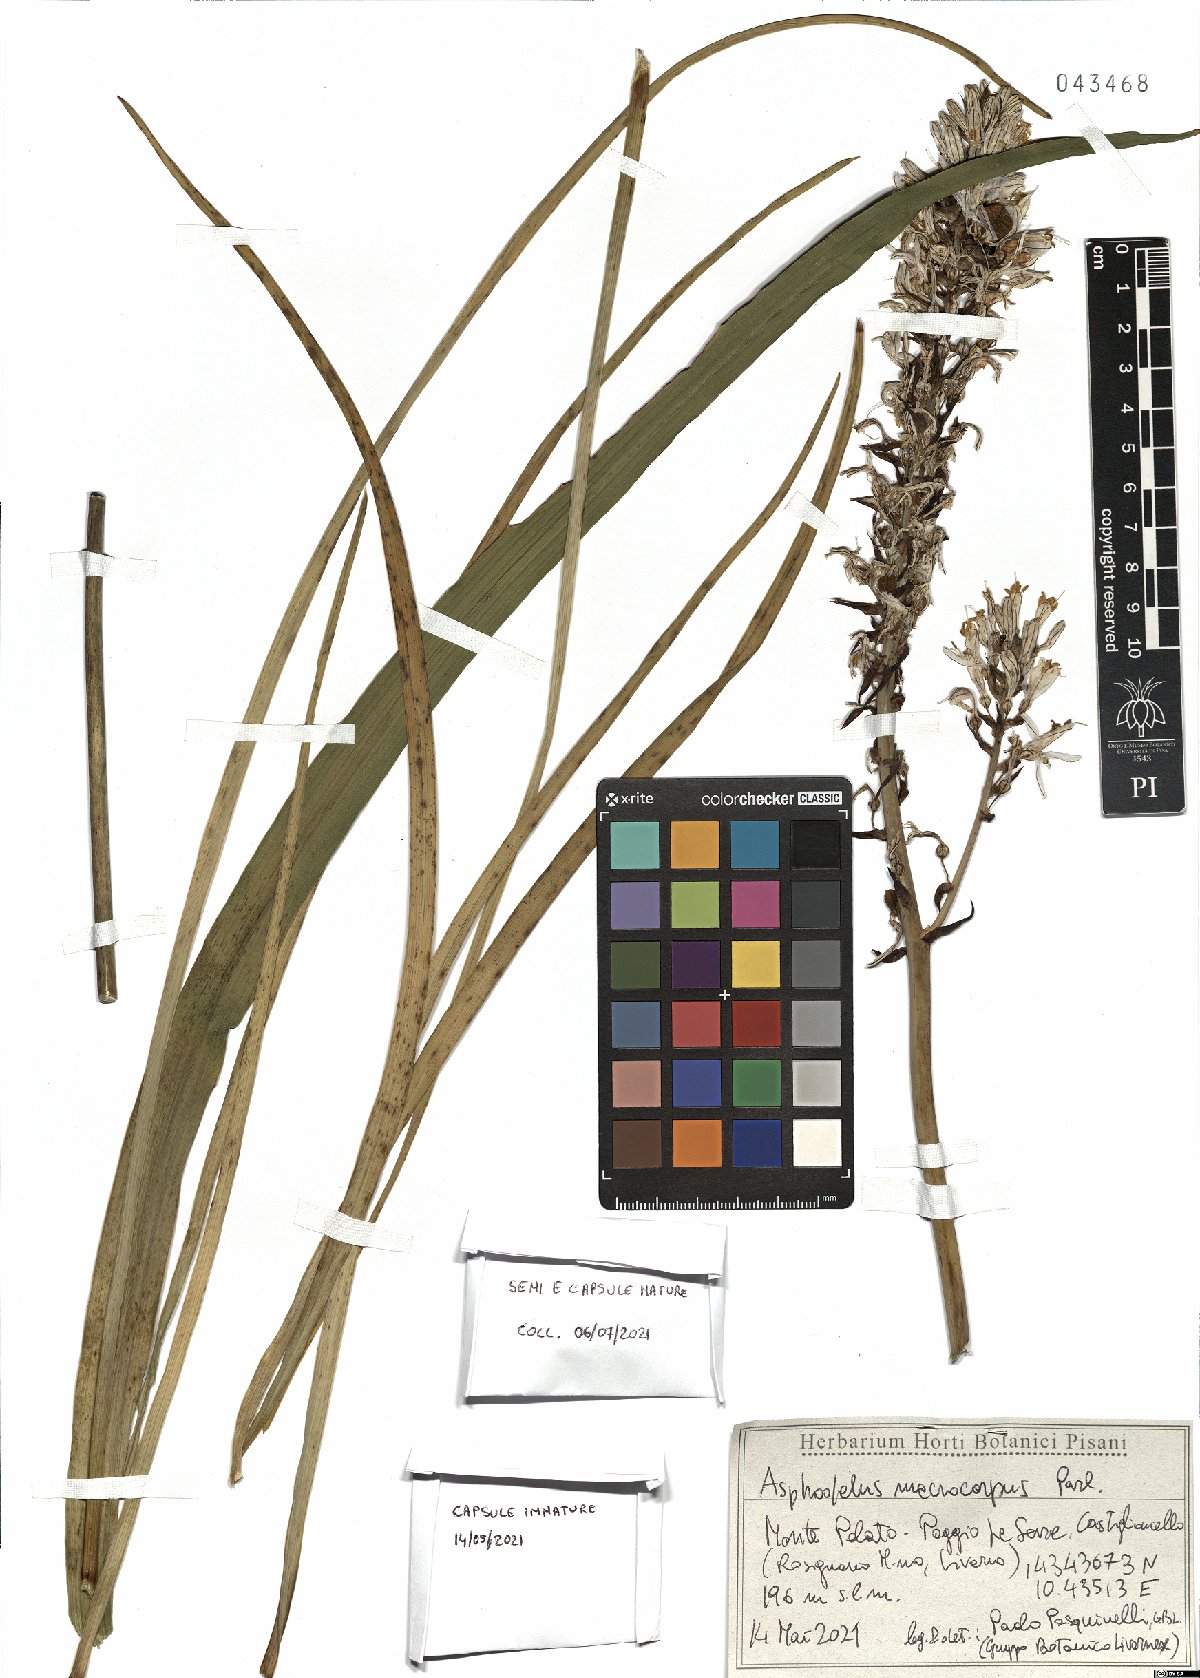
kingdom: Plantae
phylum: Tracheophyta
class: Liliopsida
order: Asparagales
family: Asphodelaceae
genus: Asphodelus
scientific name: Asphodelus macrocarpus
